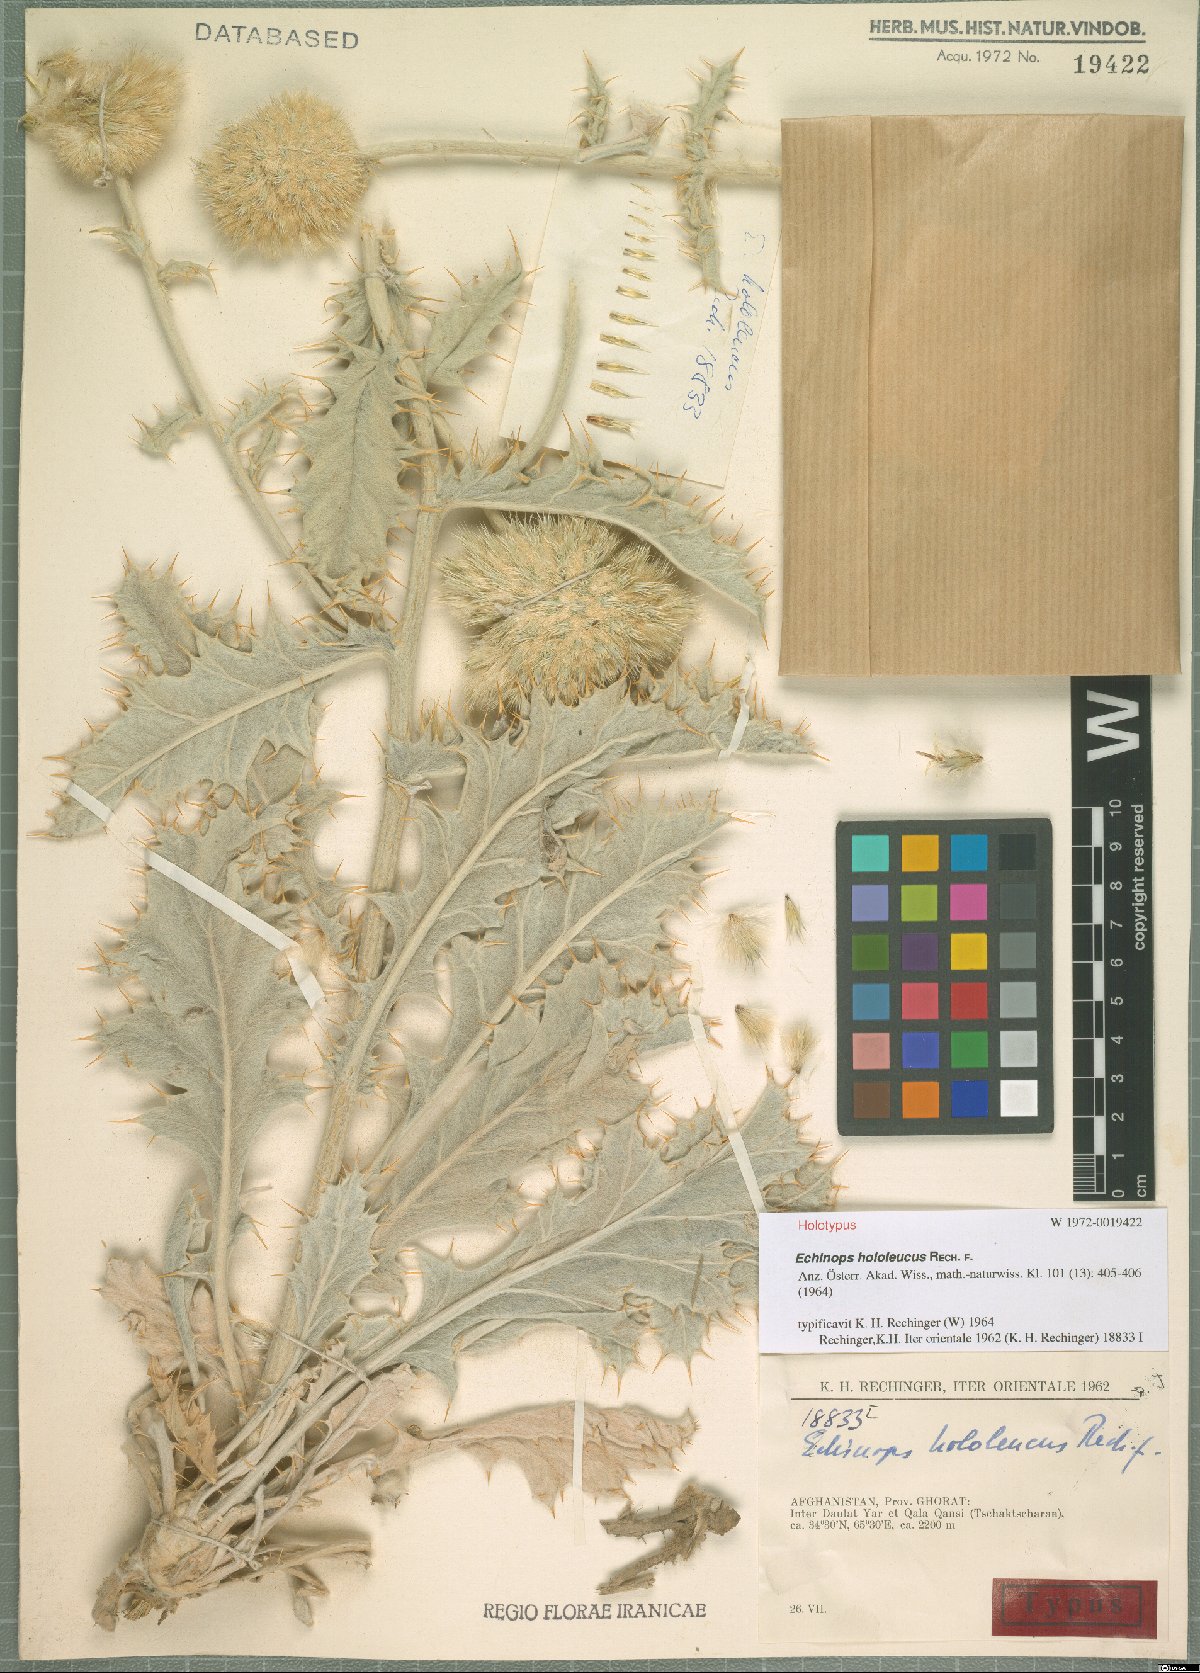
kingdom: Plantae
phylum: Tracheophyta
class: Magnoliopsida
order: Asterales
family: Asteraceae
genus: Echinops
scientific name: Echinops hololeucus
